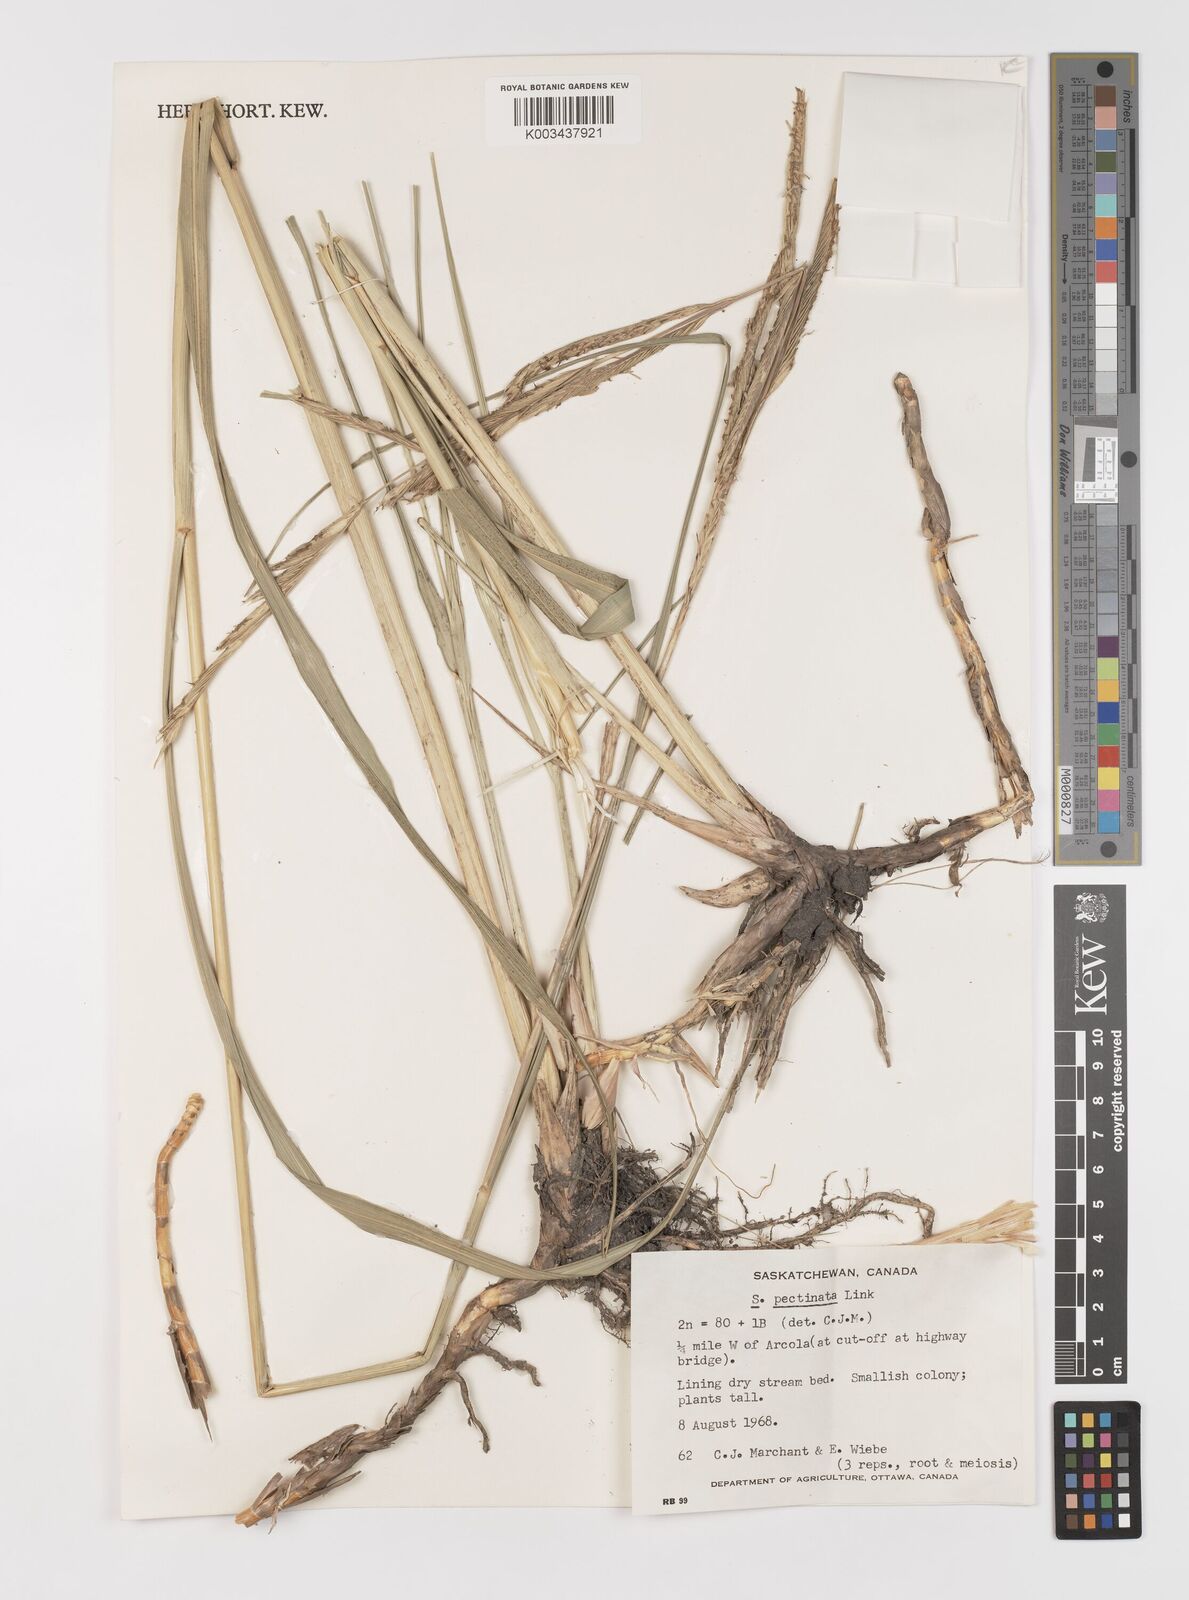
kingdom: Plantae
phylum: Tracheophyta
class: Liliopsida
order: Poales
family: Poaceae
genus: Sporobolus
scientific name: Sporobolus michauxianus
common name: Freshwater cordgrass
